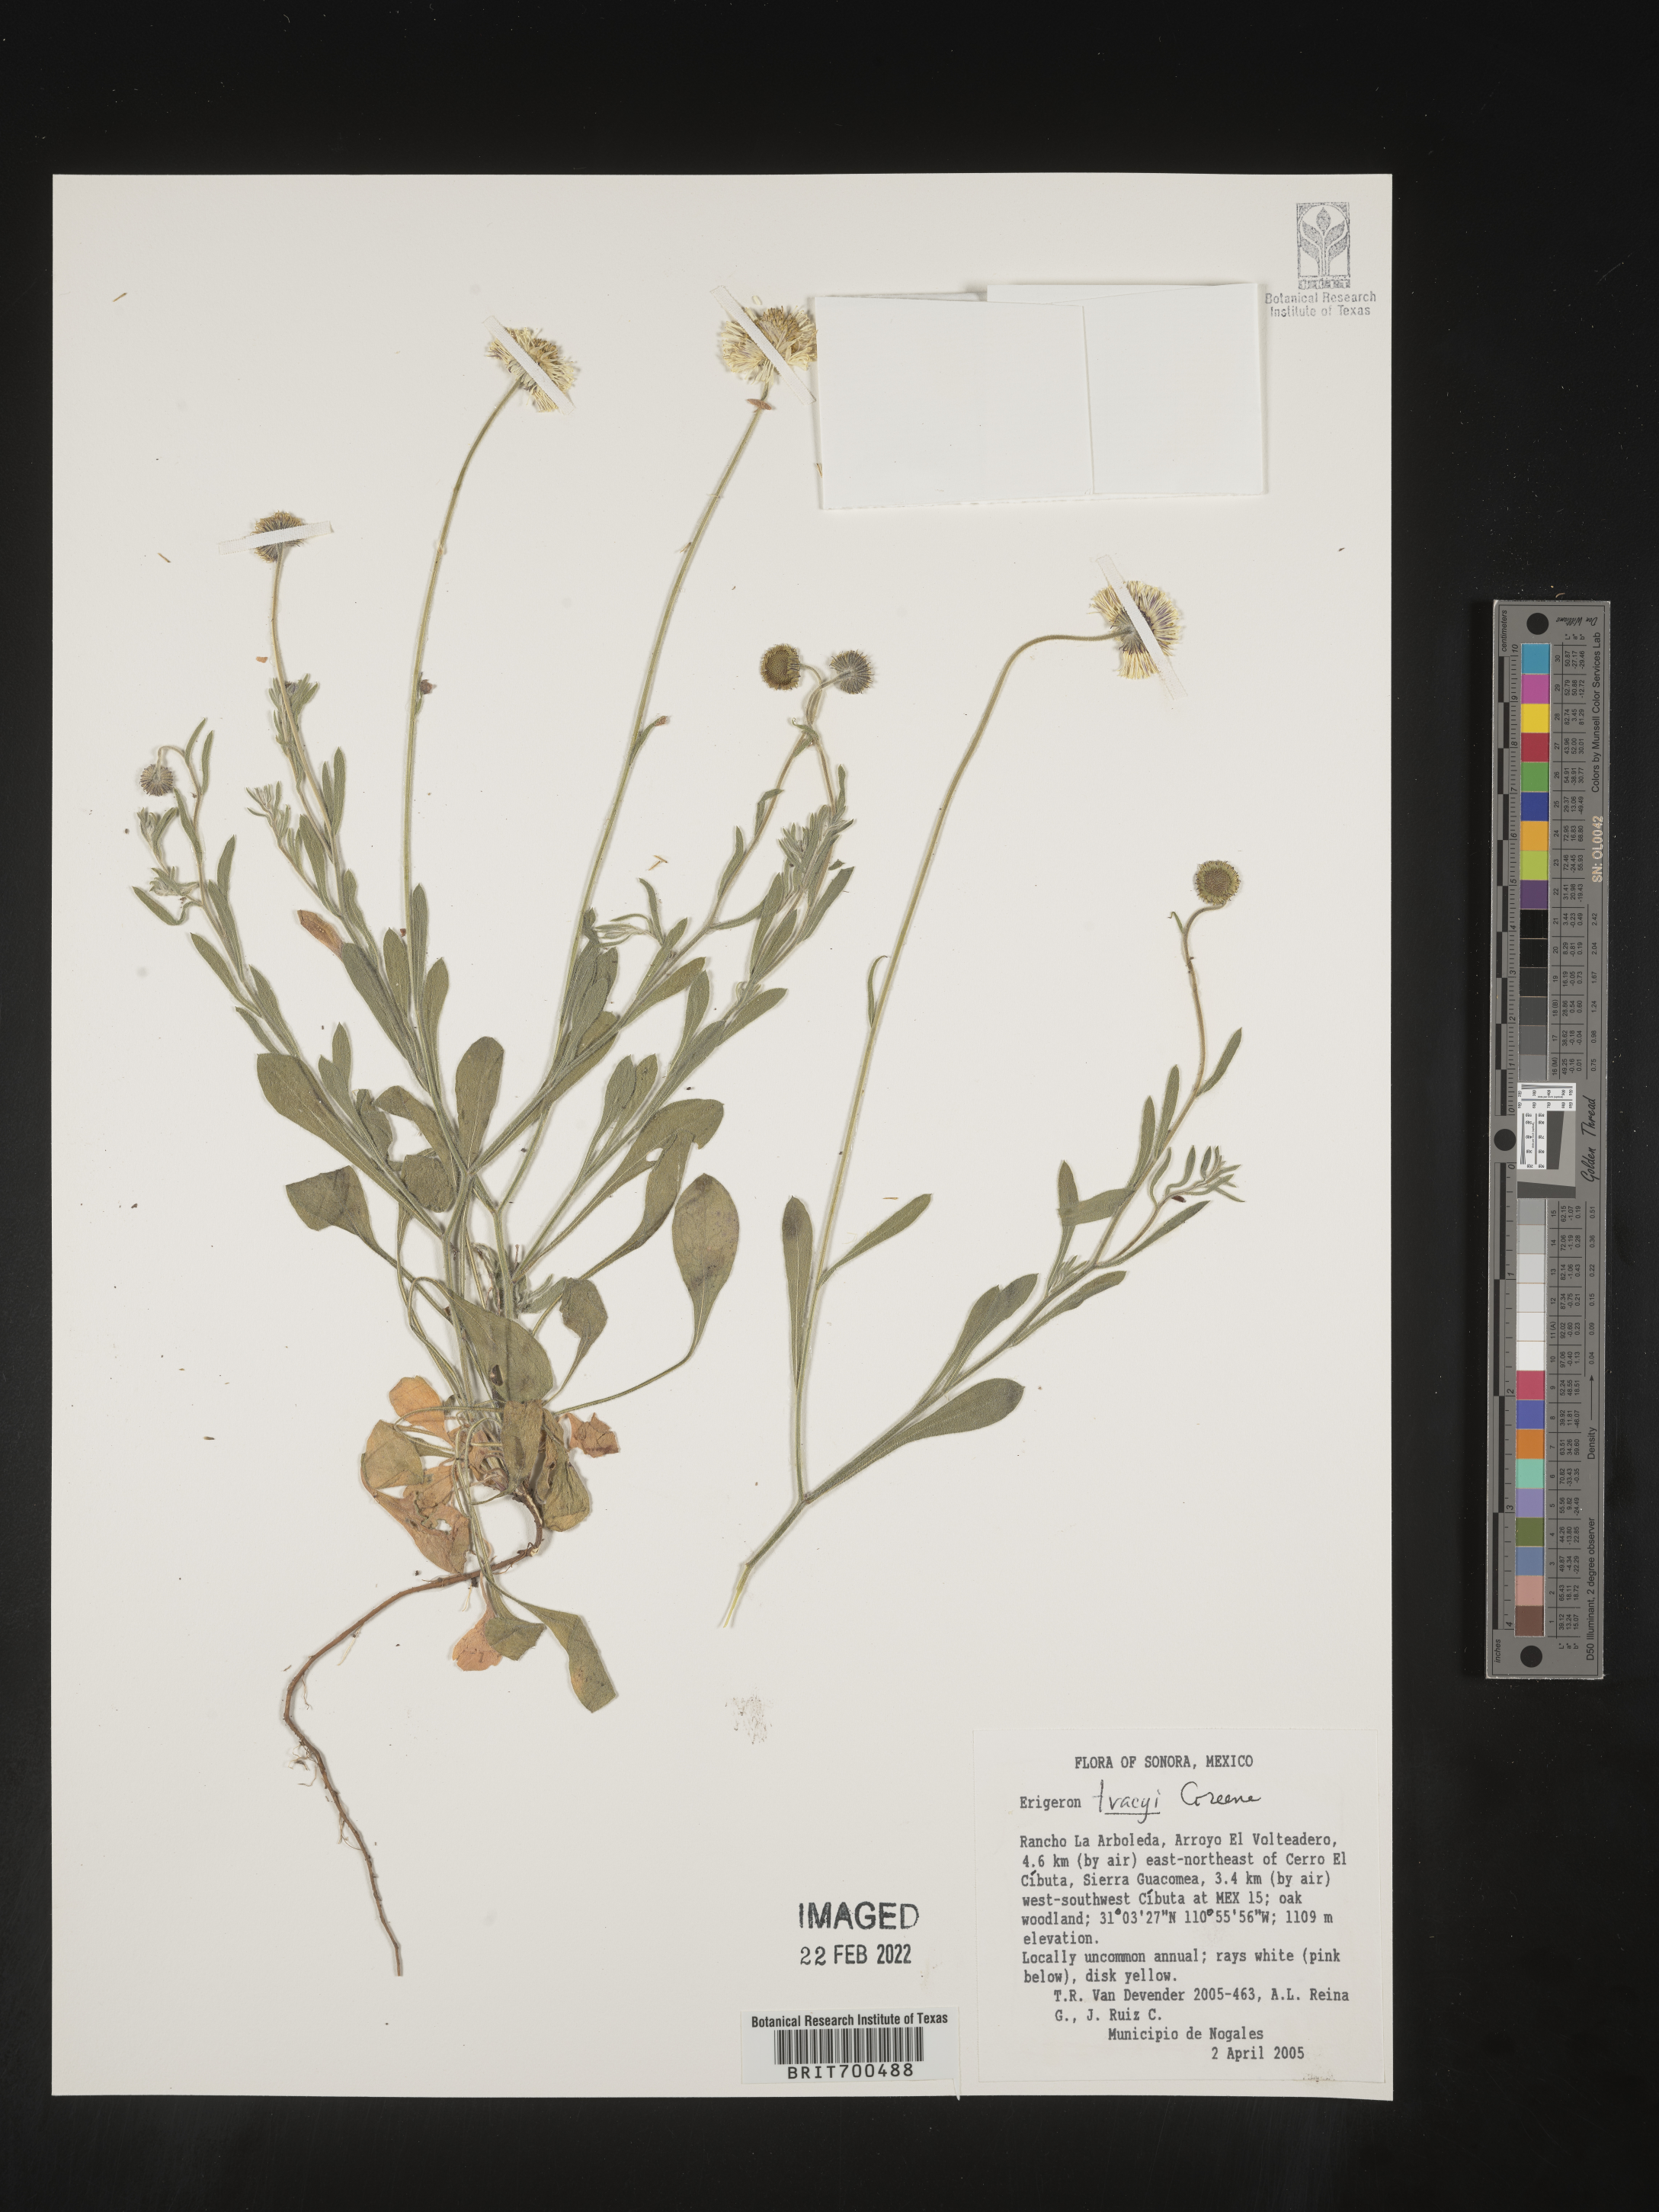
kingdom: Plantae
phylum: Tracheophyta
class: Magnoliopsida
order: Asterales
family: Asteraceae
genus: Erigeron
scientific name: Erigeron
